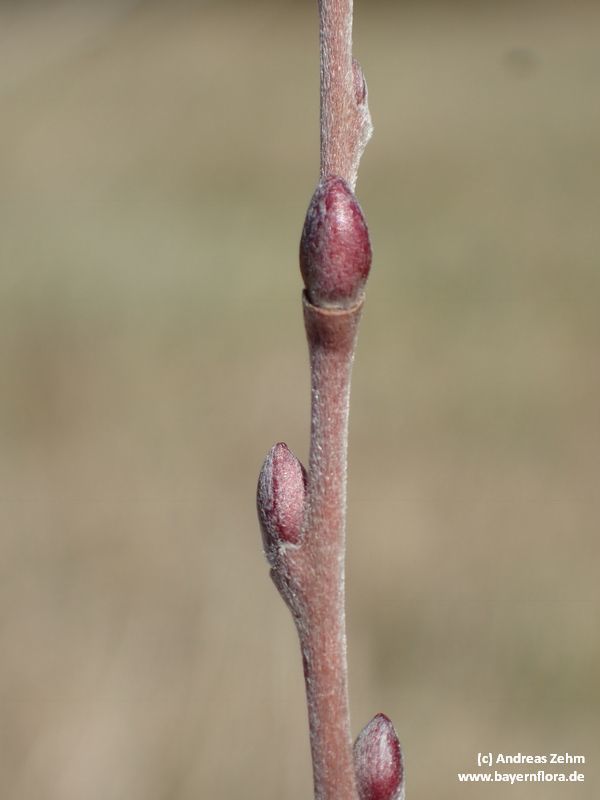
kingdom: Plantae
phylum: Tracheophyta
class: Magnoliopsida
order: Malpighiales
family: Salicaceae
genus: Salix
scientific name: Salix repens
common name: Creeping willow
